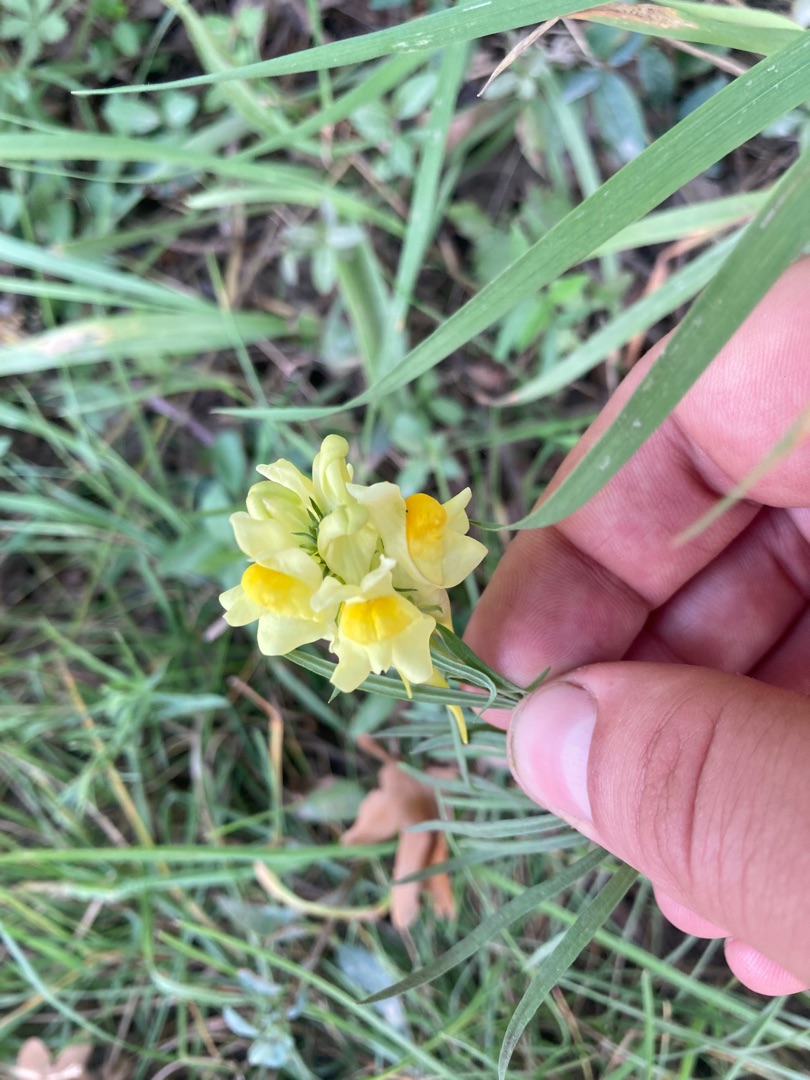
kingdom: Plantae
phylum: Tracheophyta
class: Magnoliopsida
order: Lamiales
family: Plantaginaceae
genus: Linaria
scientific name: Linaria vulgaris
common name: Almindelig torskemund
